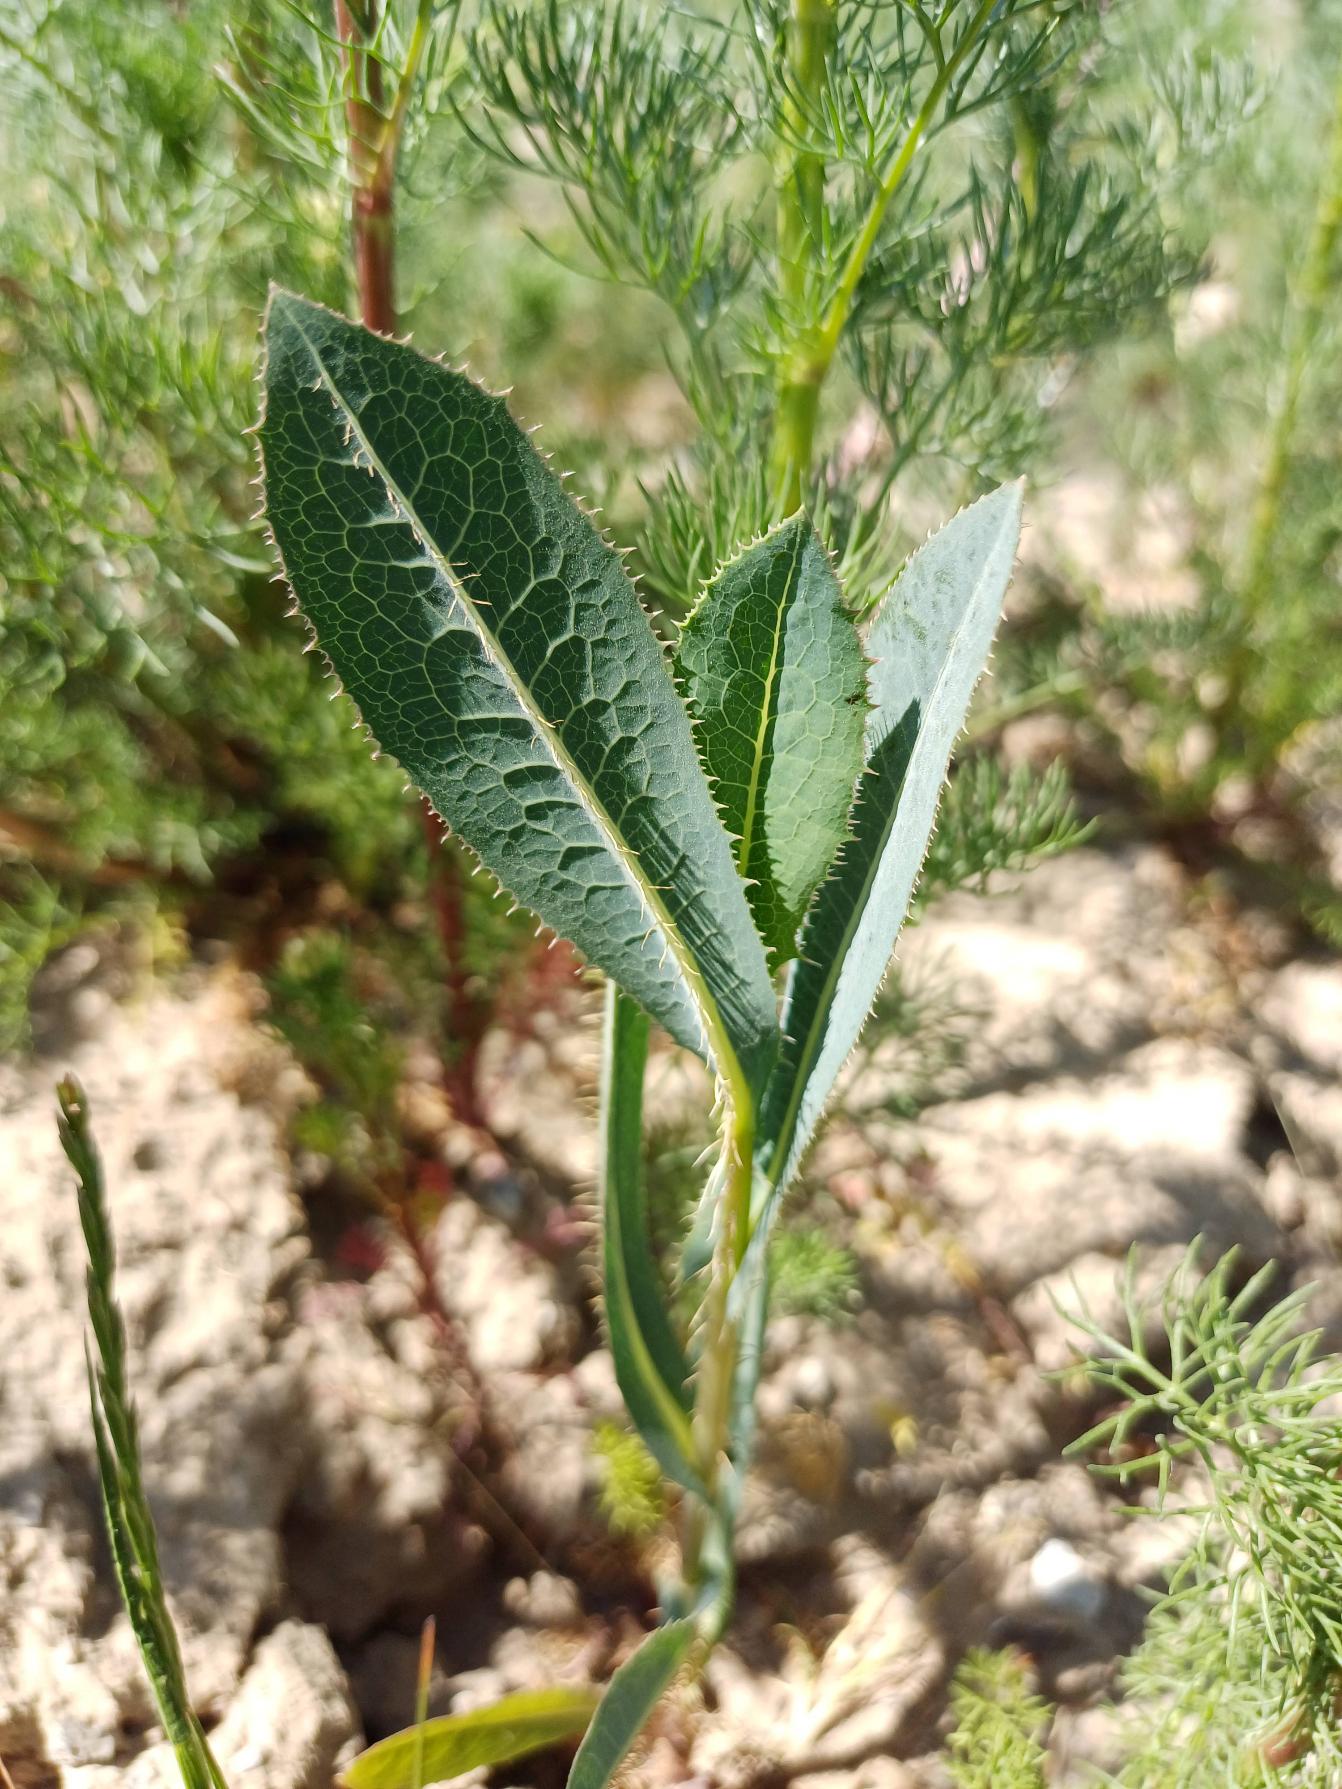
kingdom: Plantae
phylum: Tracheophyta
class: Magnoliopsida
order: Asterales
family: Asteraceae
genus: Lactuca
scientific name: Lactuca serriola
